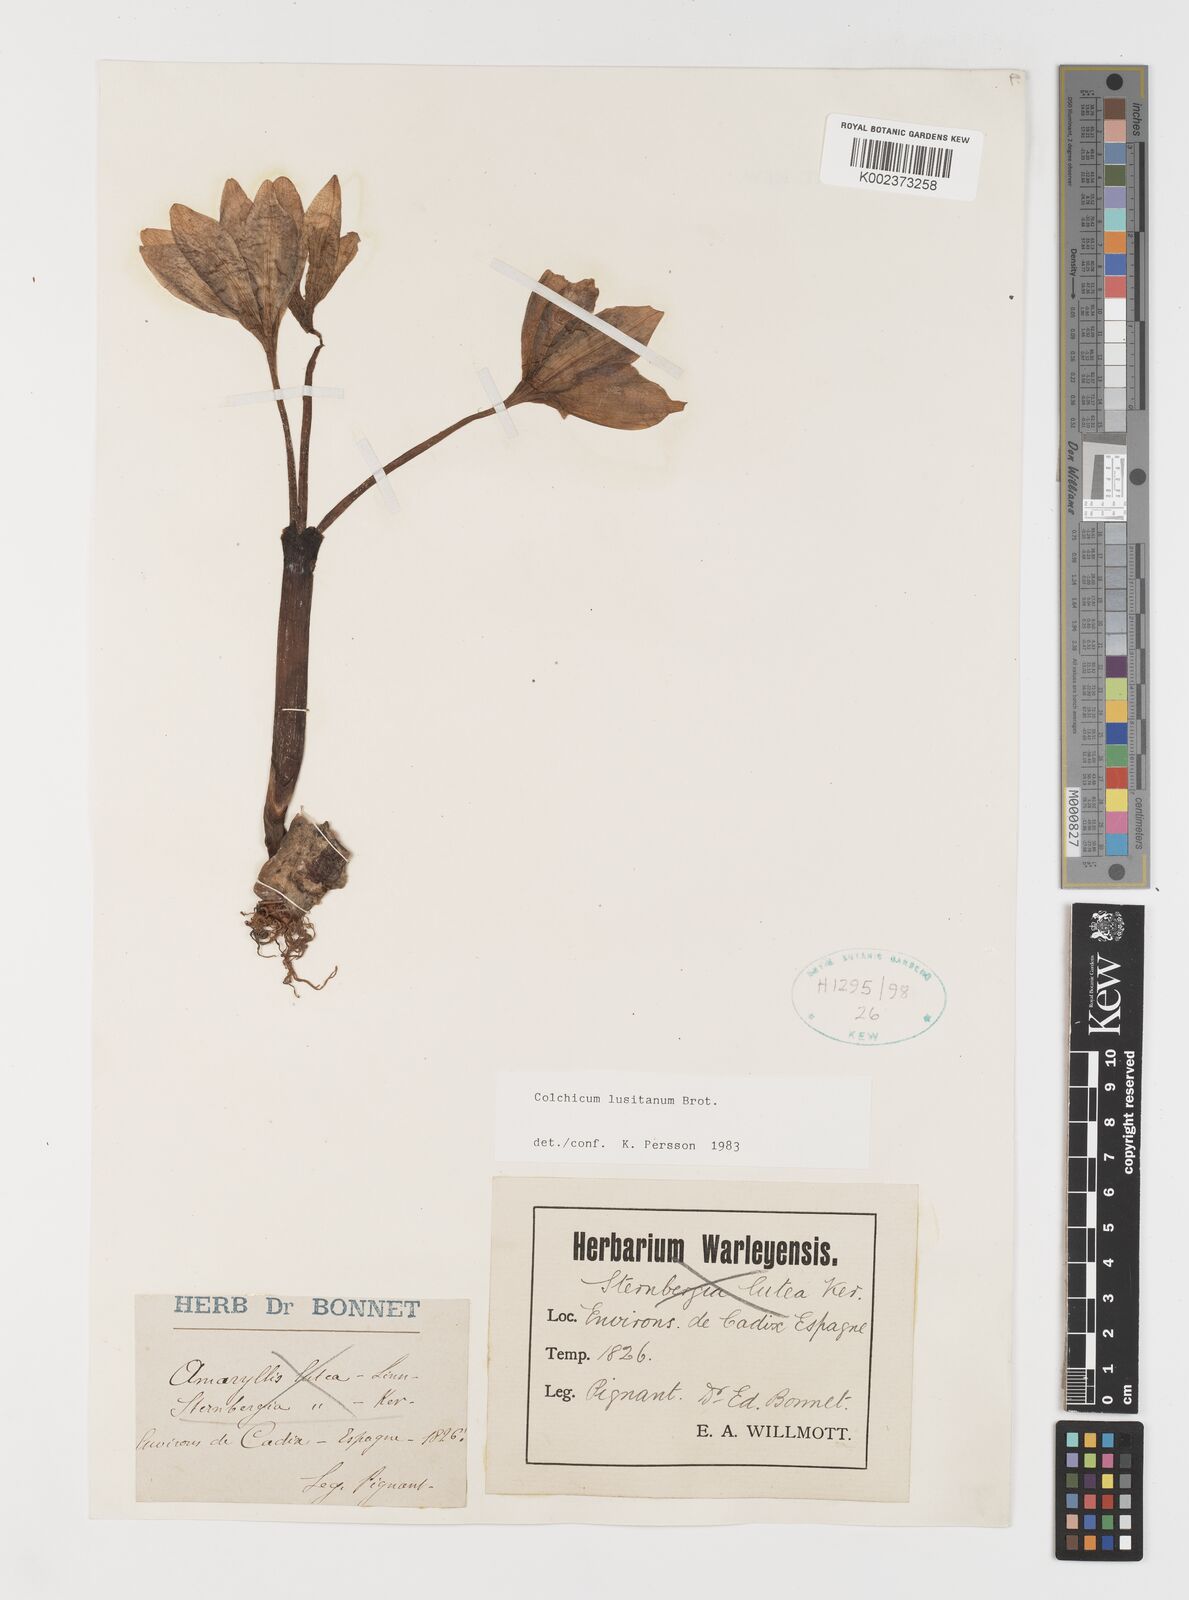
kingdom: Plantae
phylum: Tracheophyta
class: Liliopsida
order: Liliales
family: Colchicaceae
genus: Colchicum
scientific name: Colchicum lusitanum
